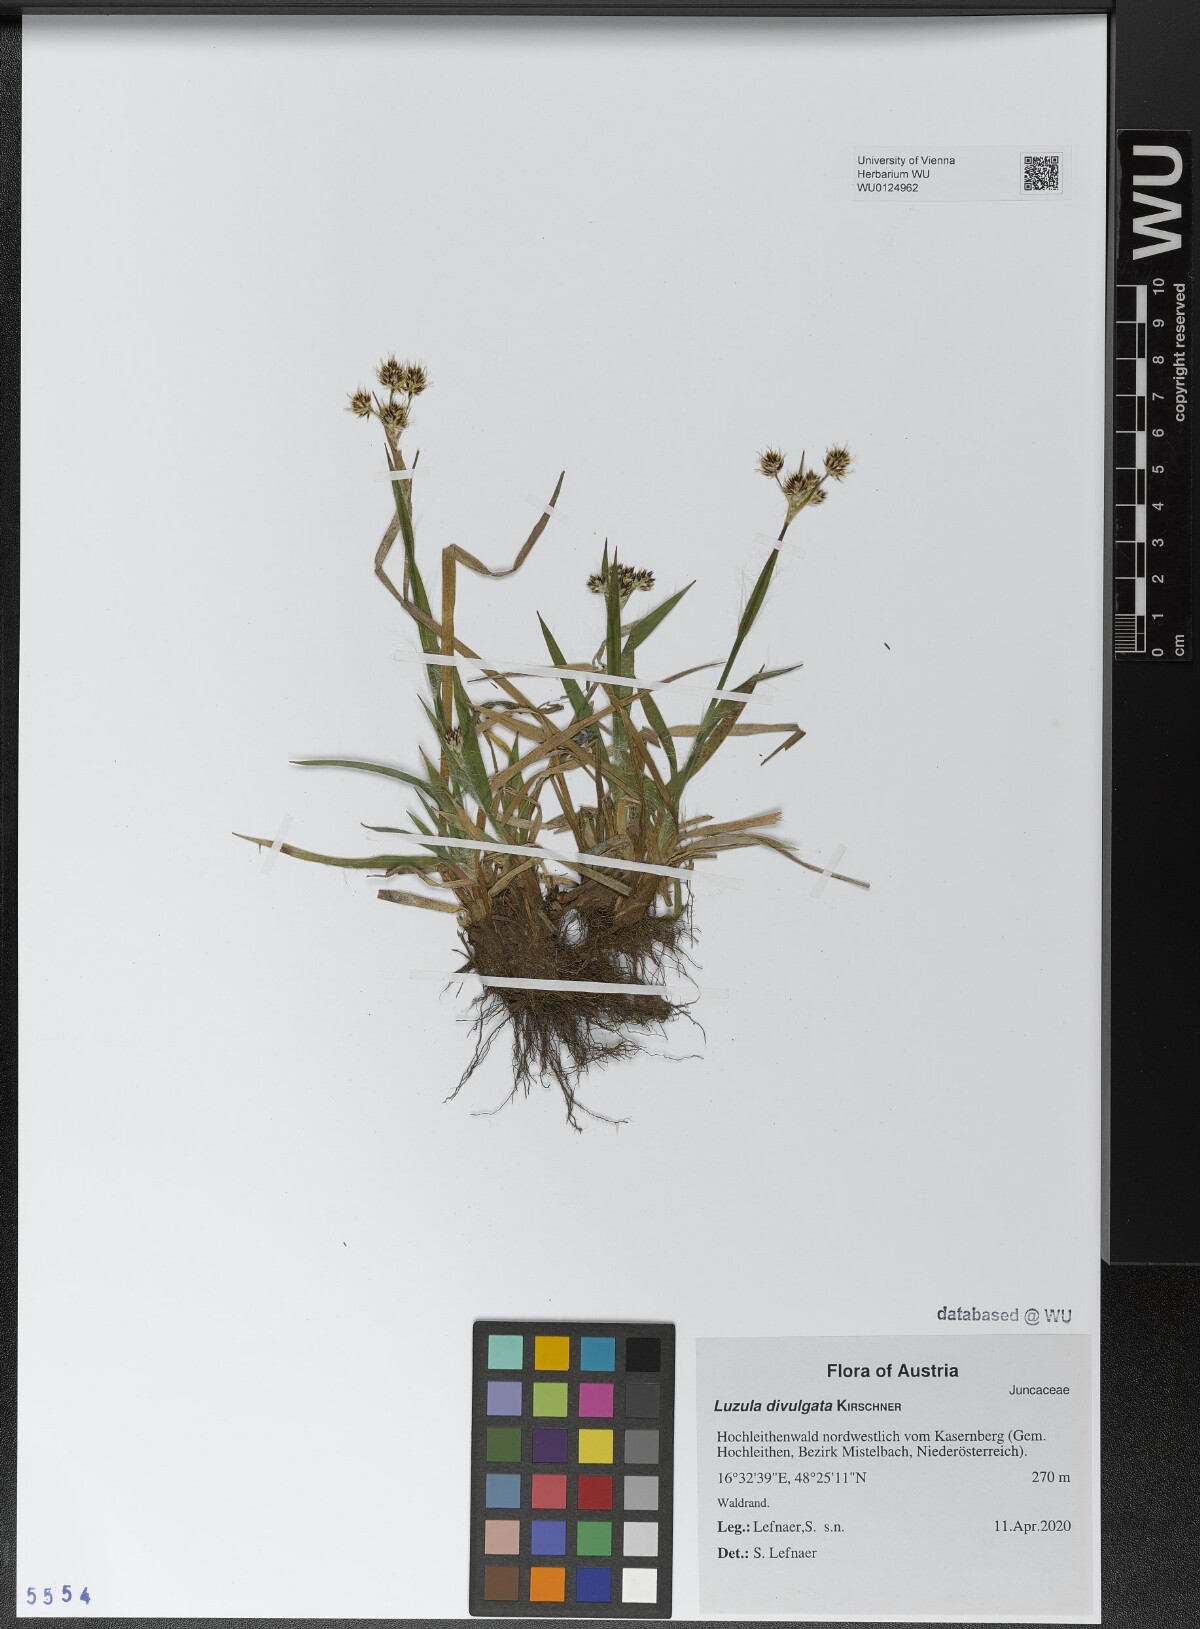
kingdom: Plantae
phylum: Tracheophyta
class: Liliopsida
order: Poales
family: Juncaceae
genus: Luzula
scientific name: Luzula divulgata
